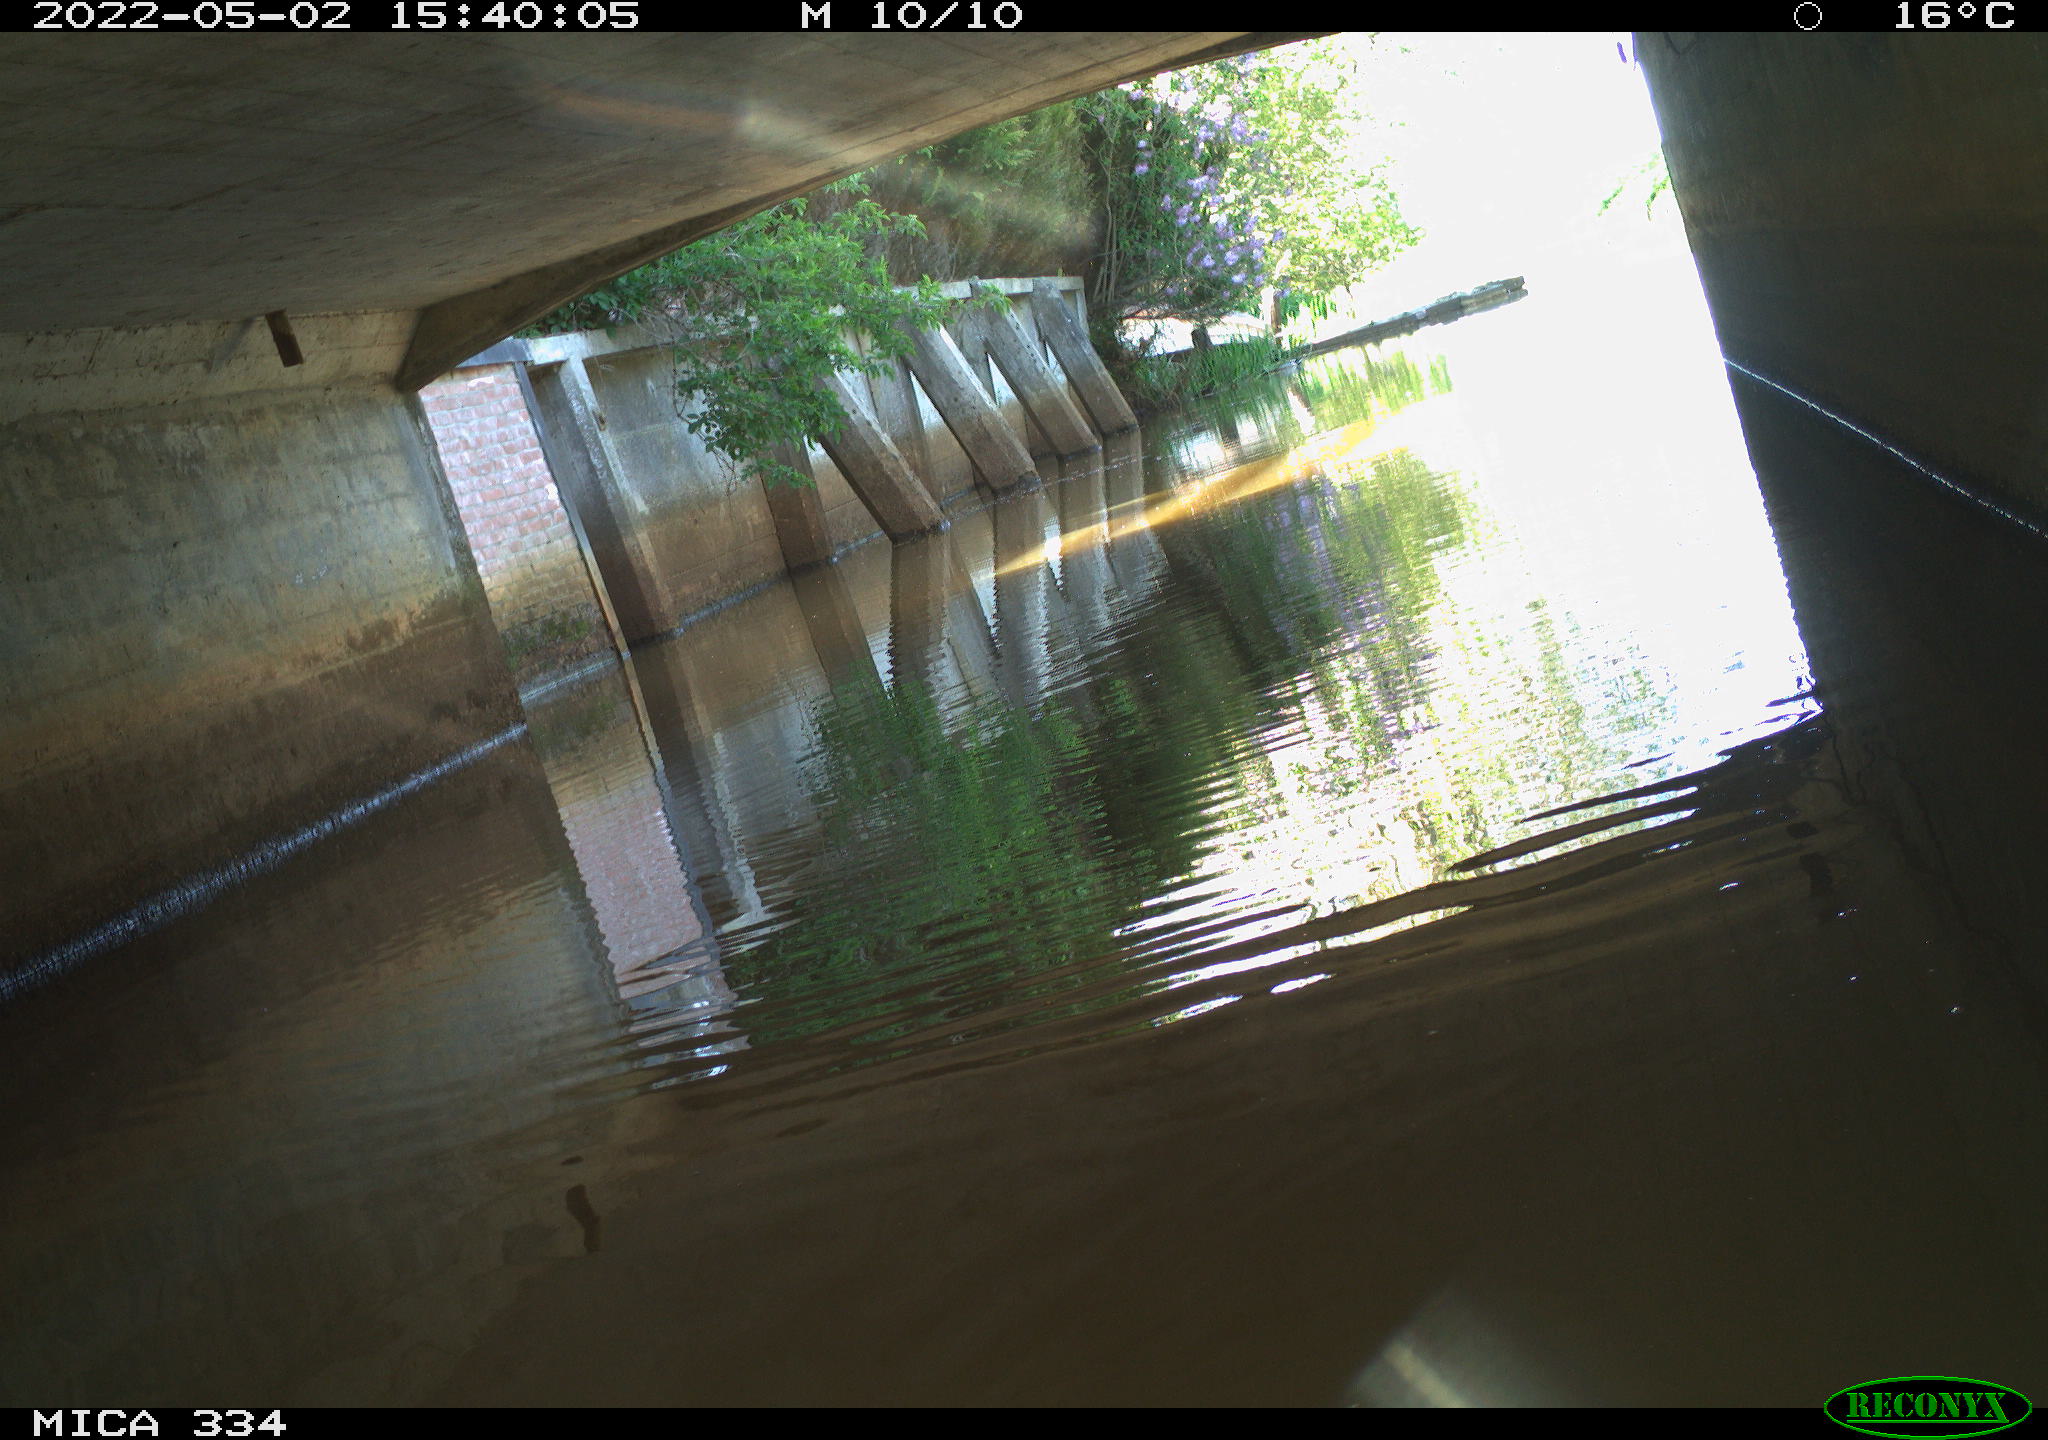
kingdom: Animalia
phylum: Chordata
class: Aves
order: Gruiformes
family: Rallidae
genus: Gallinula
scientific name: Gallinula chloropus
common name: Common moorhen
